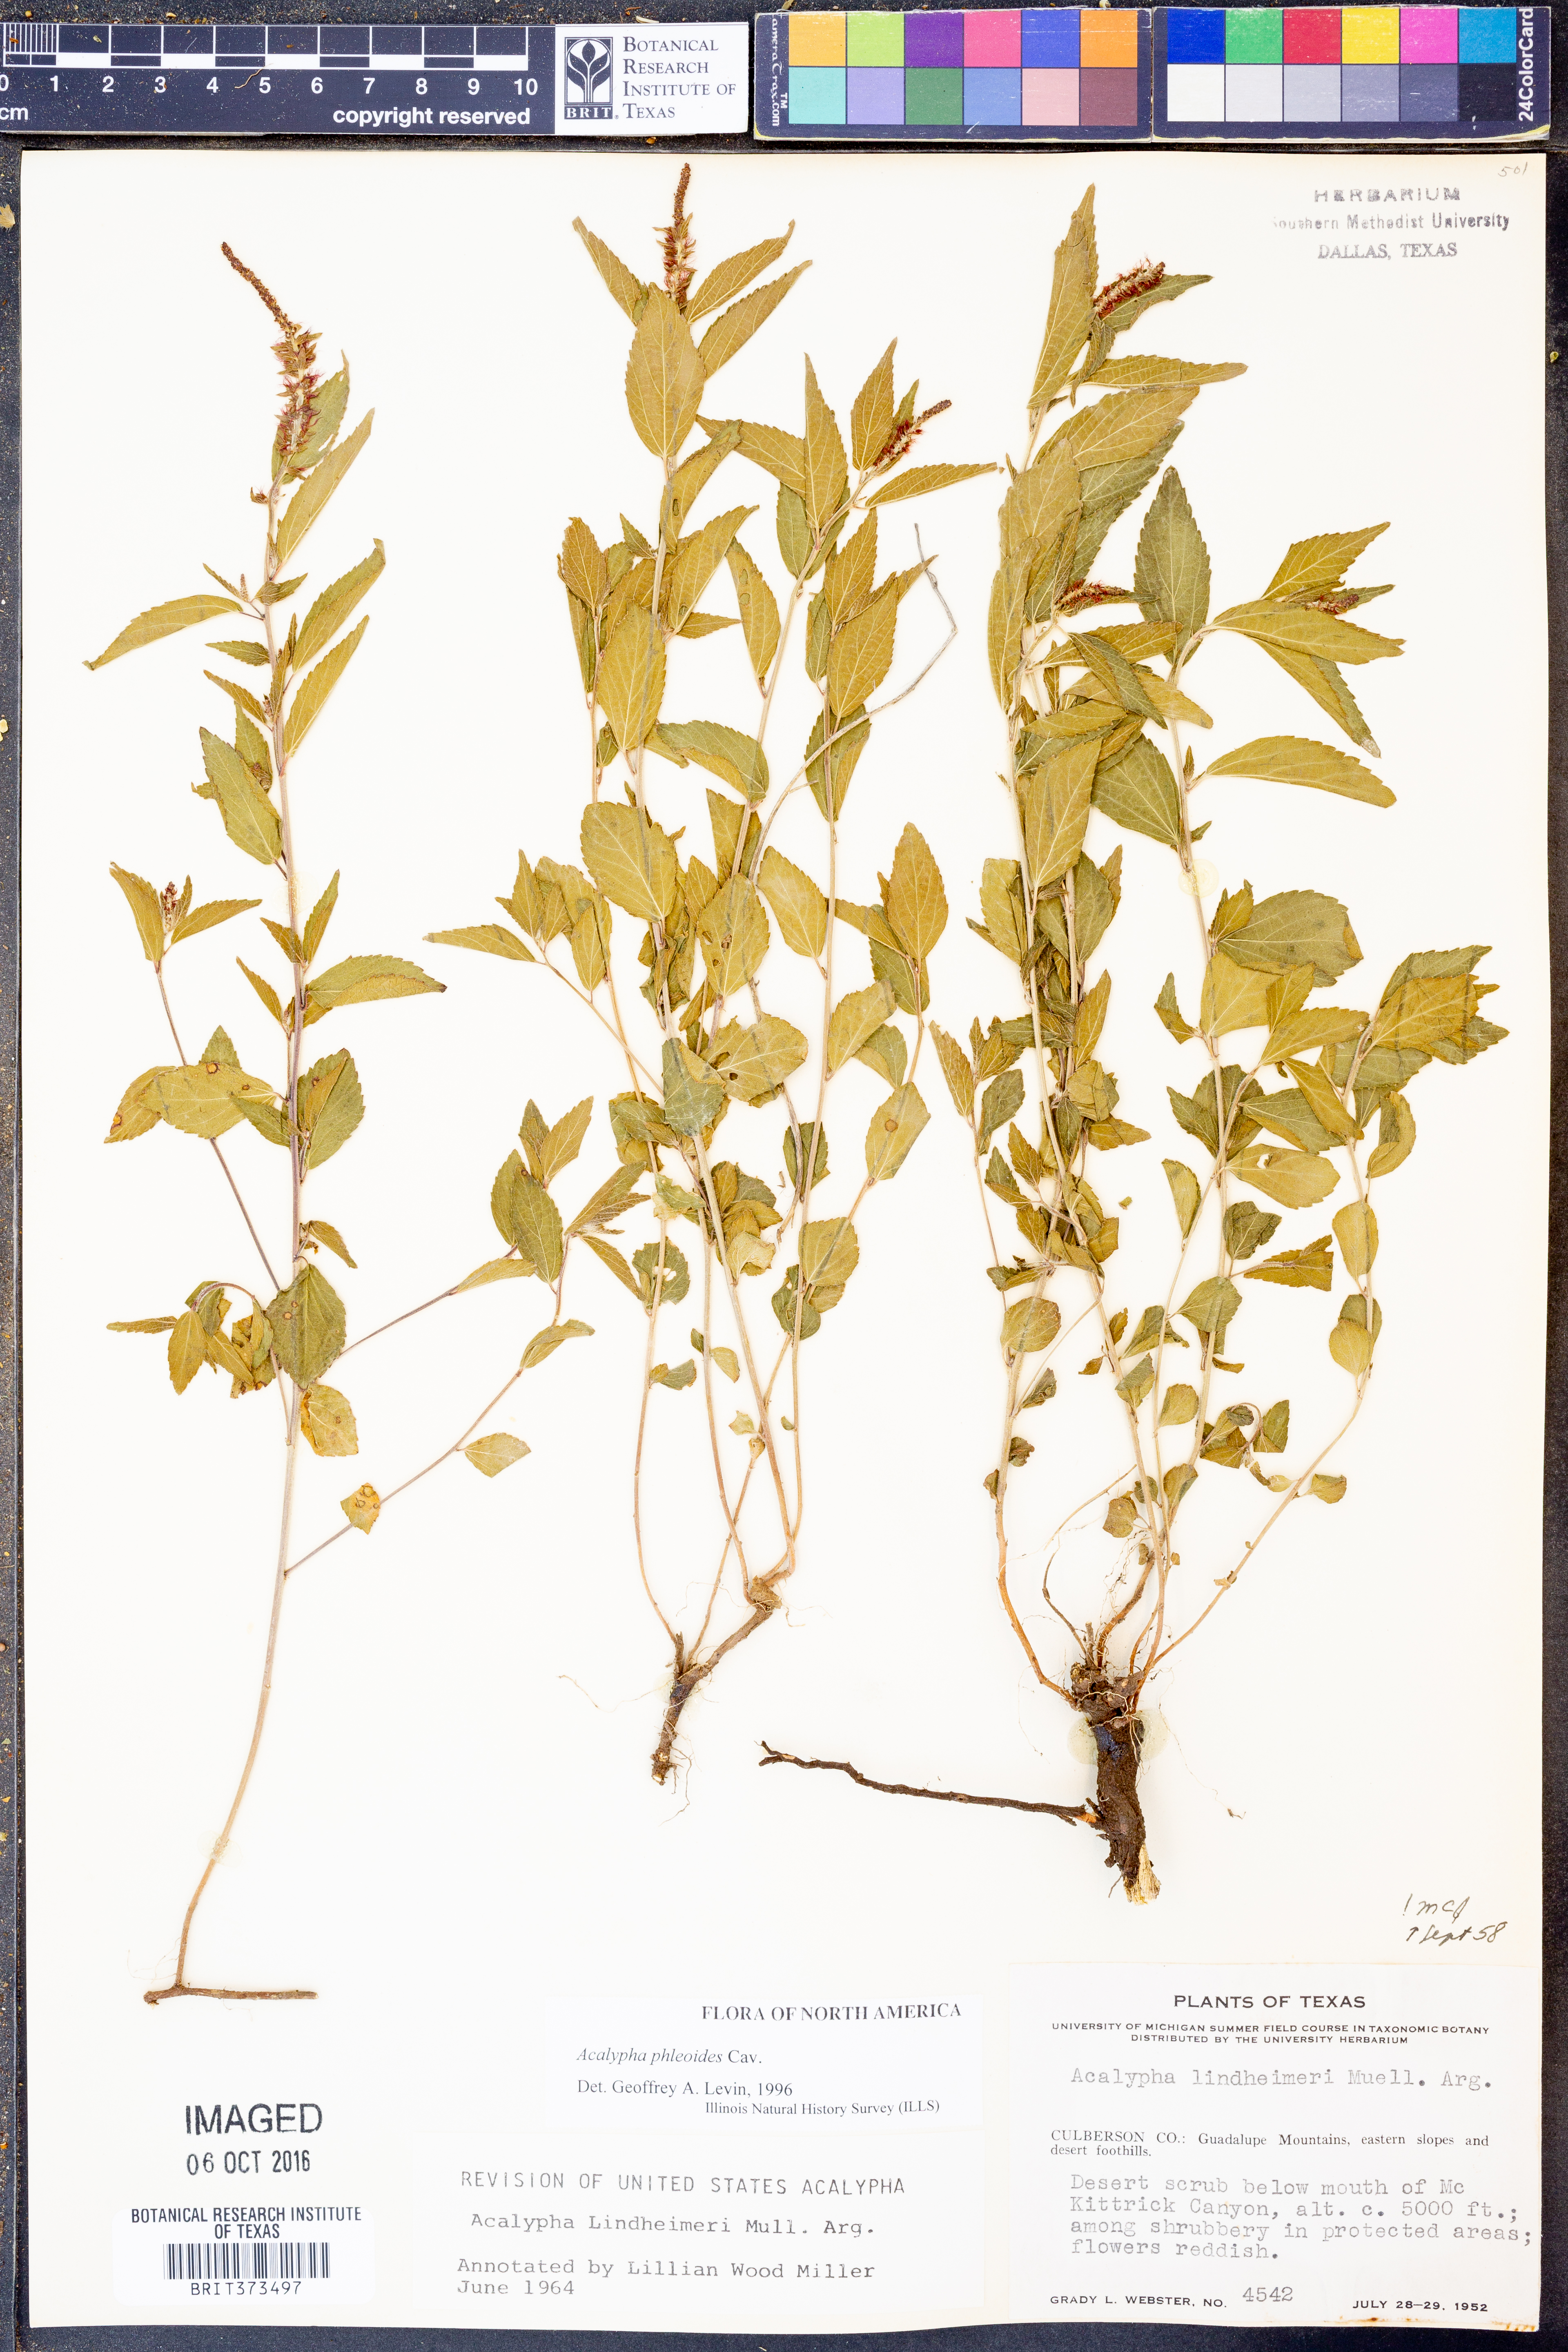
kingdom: Plantae
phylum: Tracheophyta
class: Magnoliopsida
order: Malpighiales
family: Euphorbiaceae
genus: Acalypha
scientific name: Acalypha phleoides
